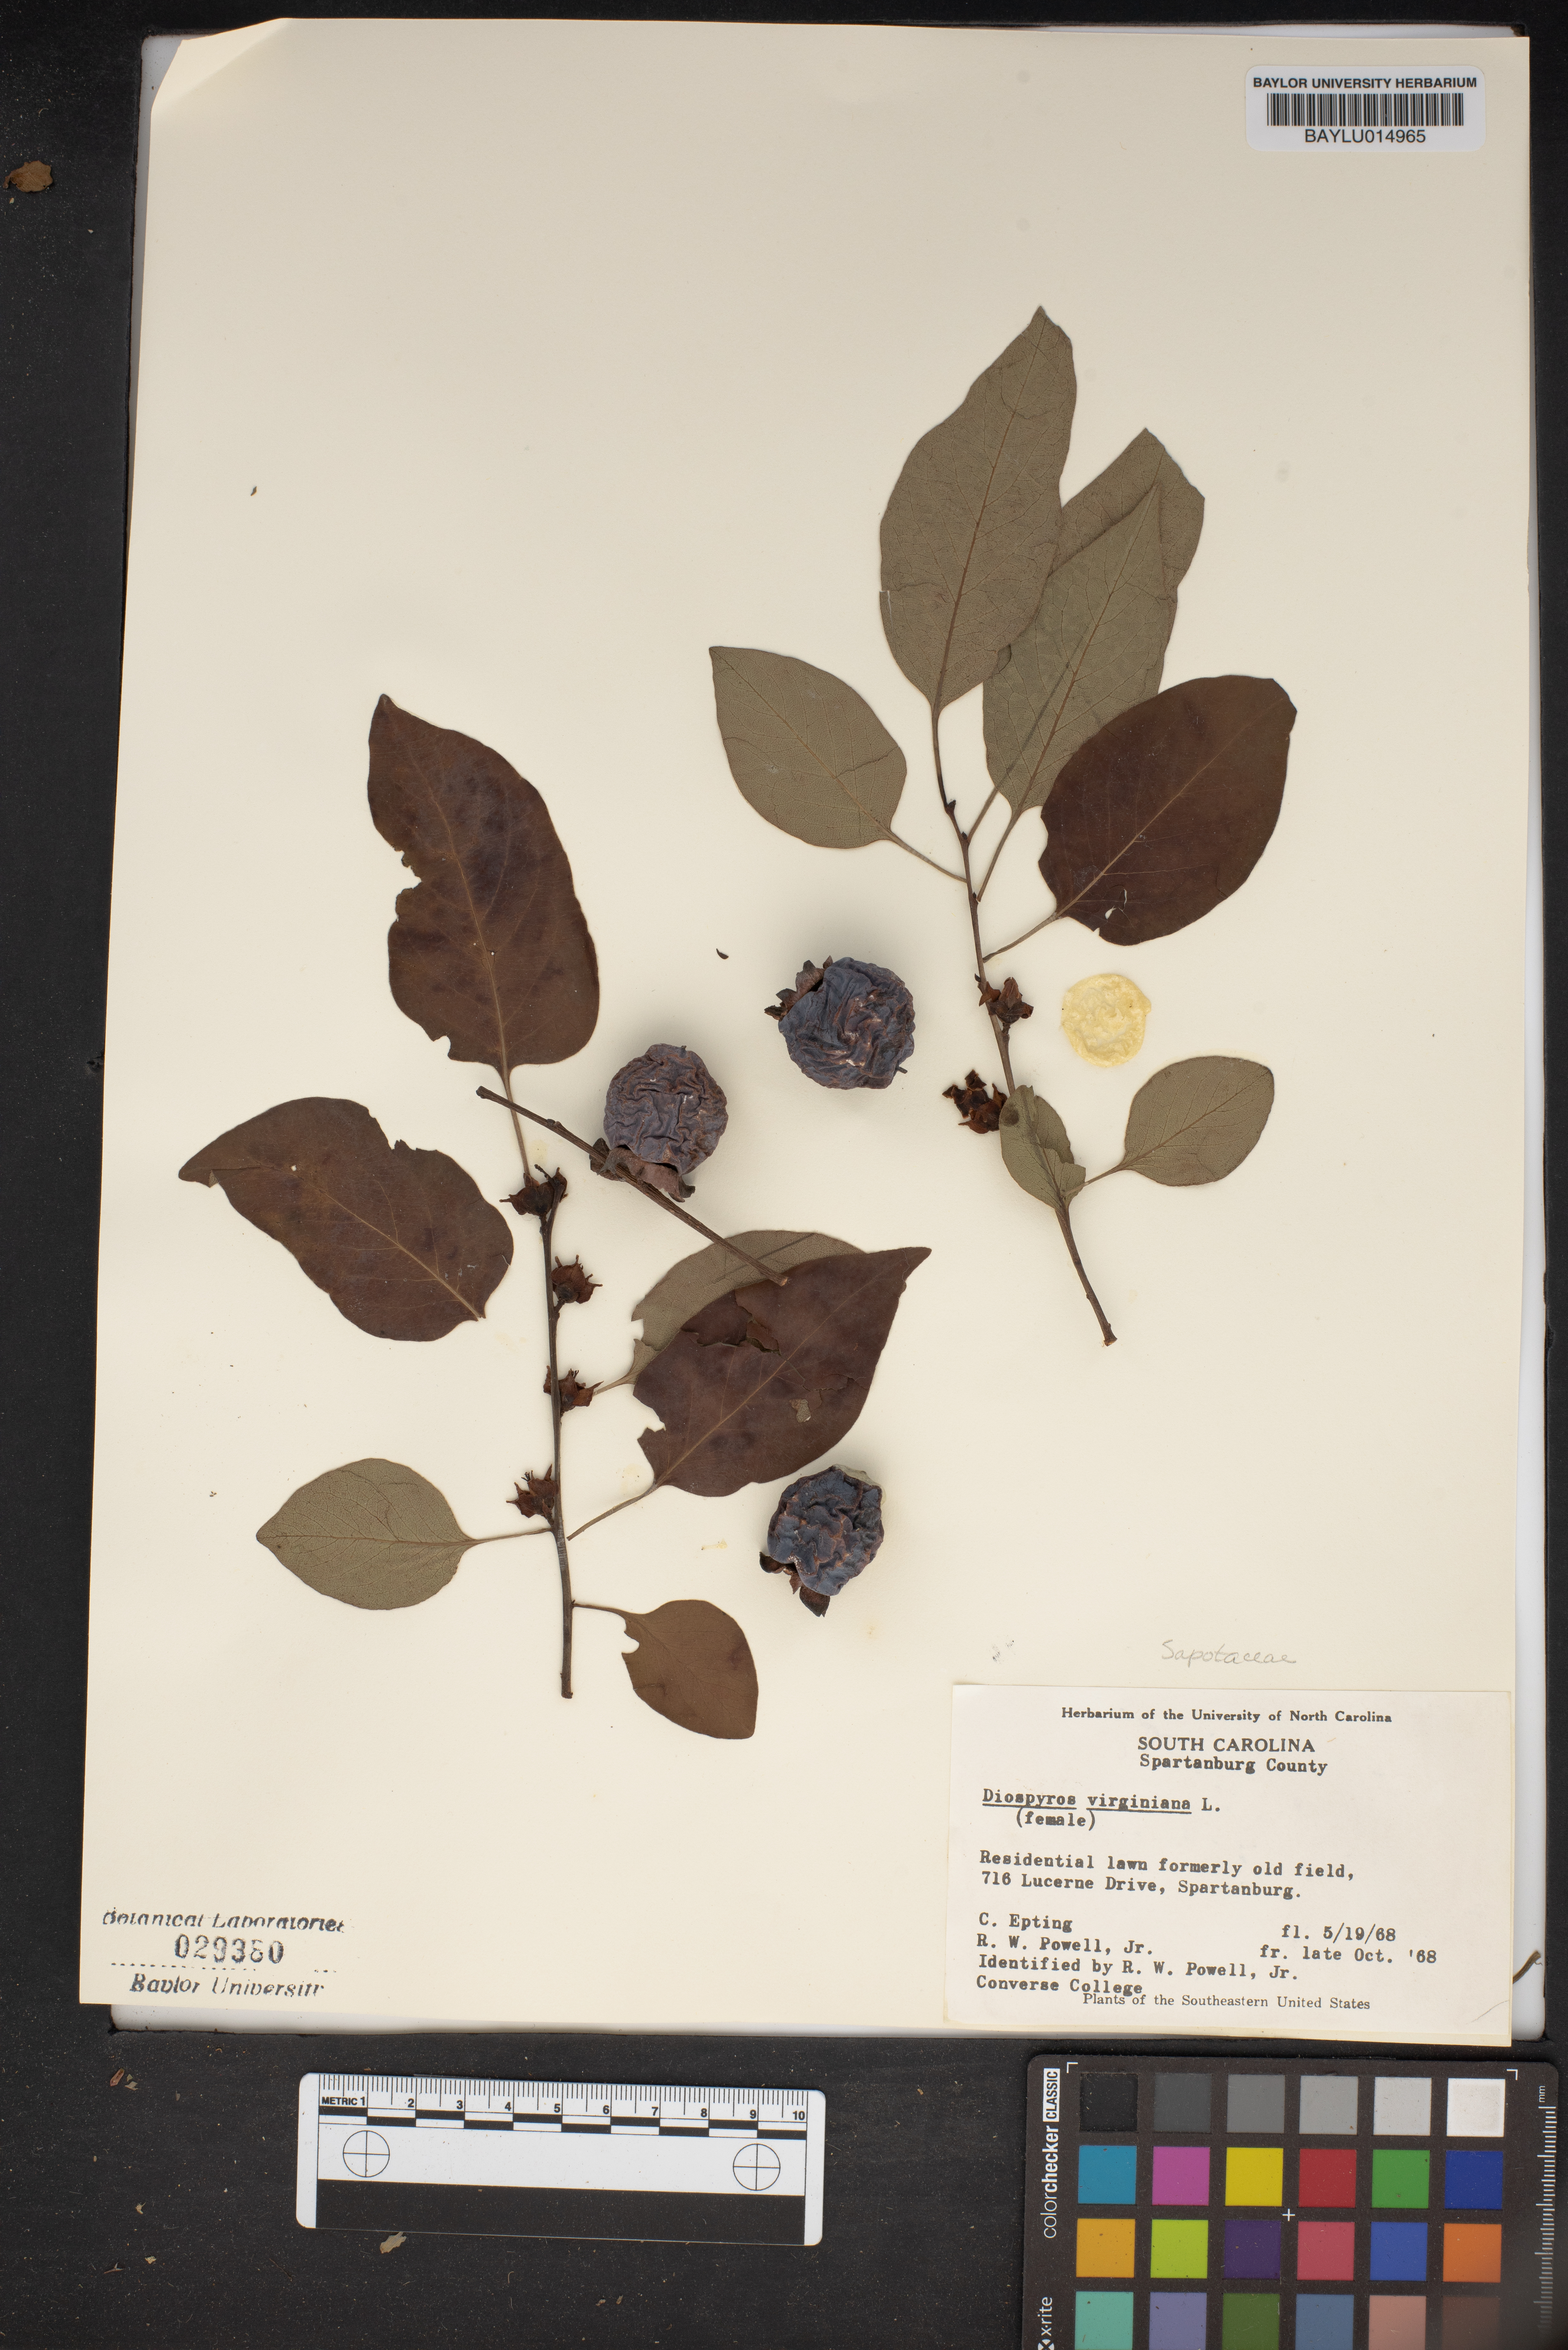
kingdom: Plantae
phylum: Tracheophyta
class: Magnoliopsida
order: Ericales
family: Ebenaceae
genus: Diospyros
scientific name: Diospyros virginiana
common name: Persimmon
